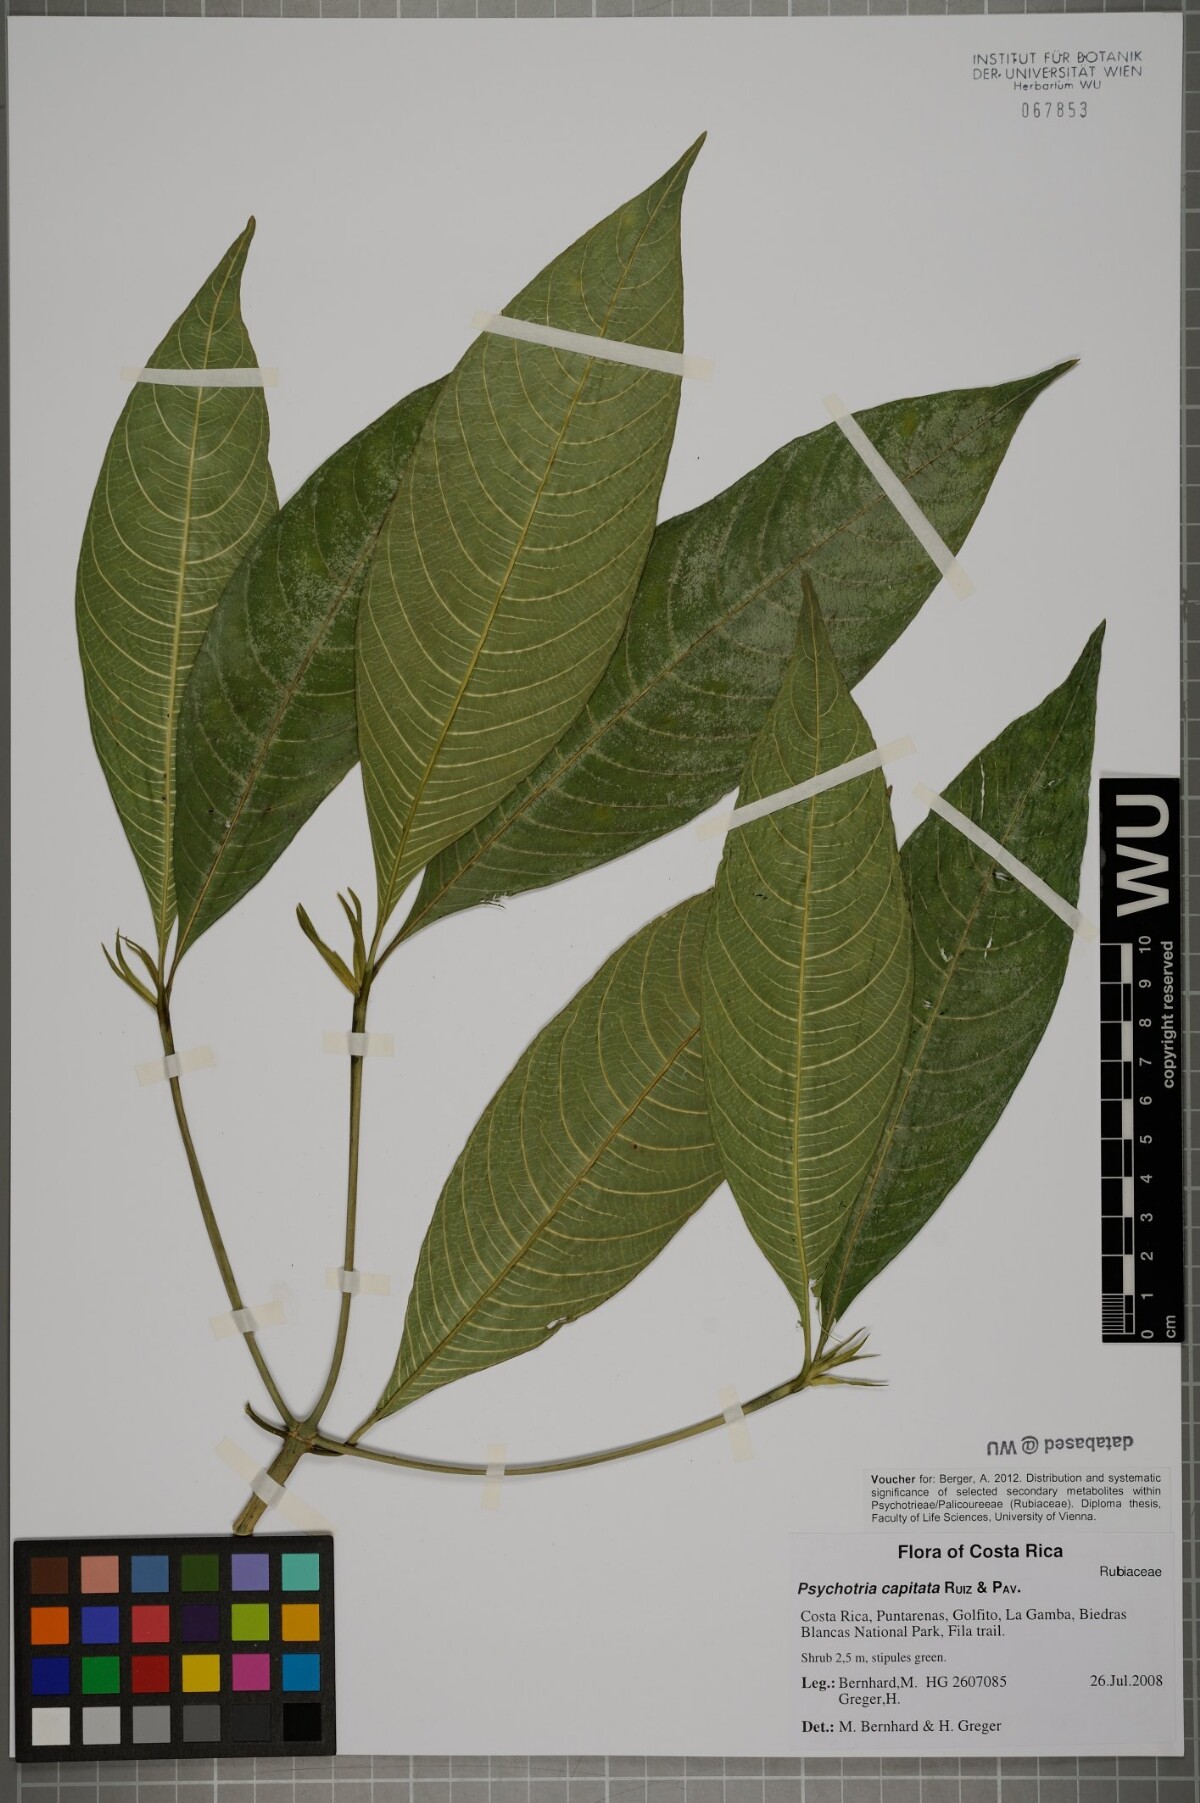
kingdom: Plantae
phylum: Tracheophyta
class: Magnoliopsida
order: Gentianales
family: Rubiaceae
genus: Palicourea
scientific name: Palicourea violacea
